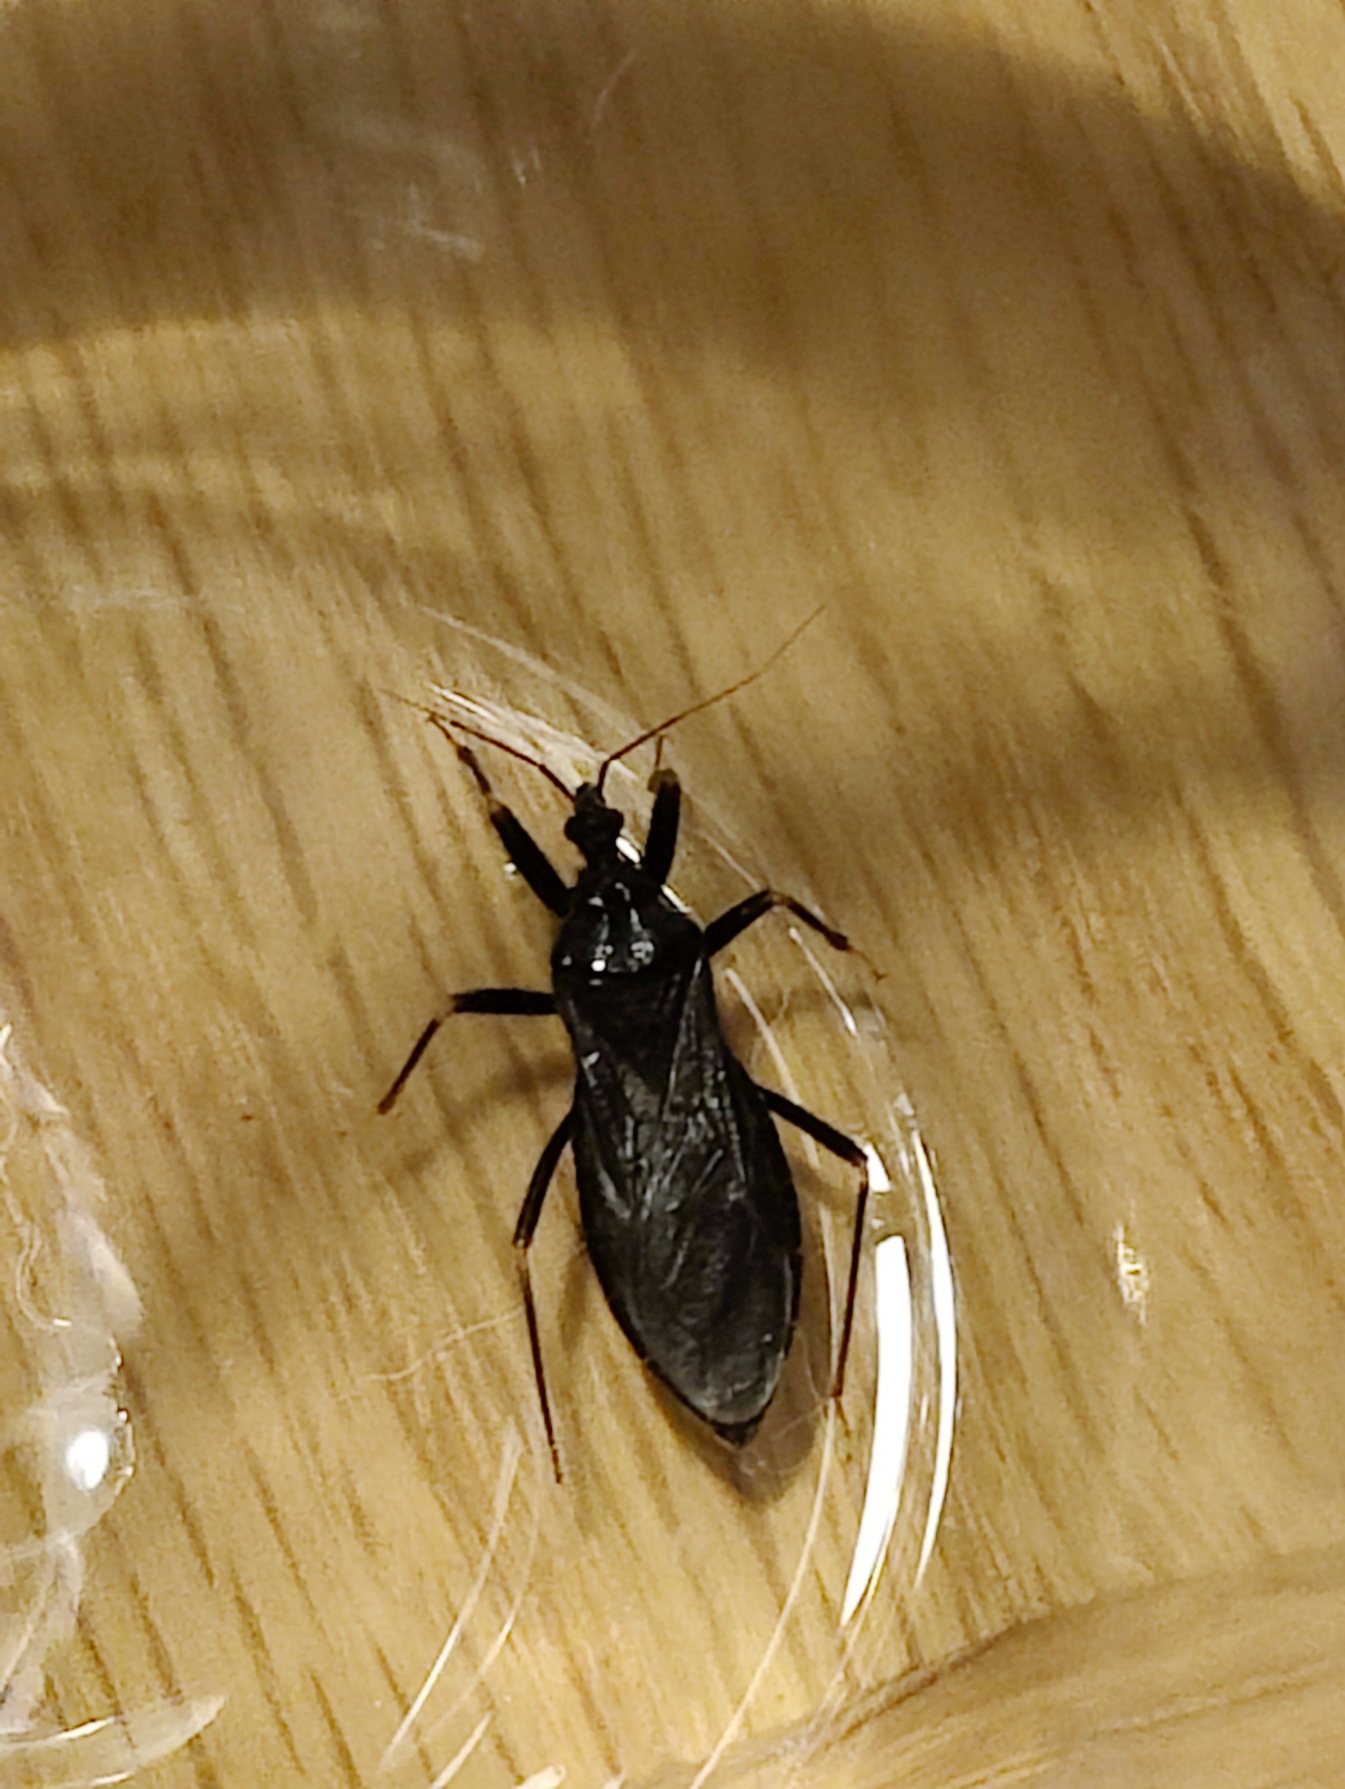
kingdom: Animalia
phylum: Arthropoda
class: Insecta
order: Hemiptera
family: Reduviidae
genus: Reduvius
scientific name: Reduvius personatus
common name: Skarntæge
